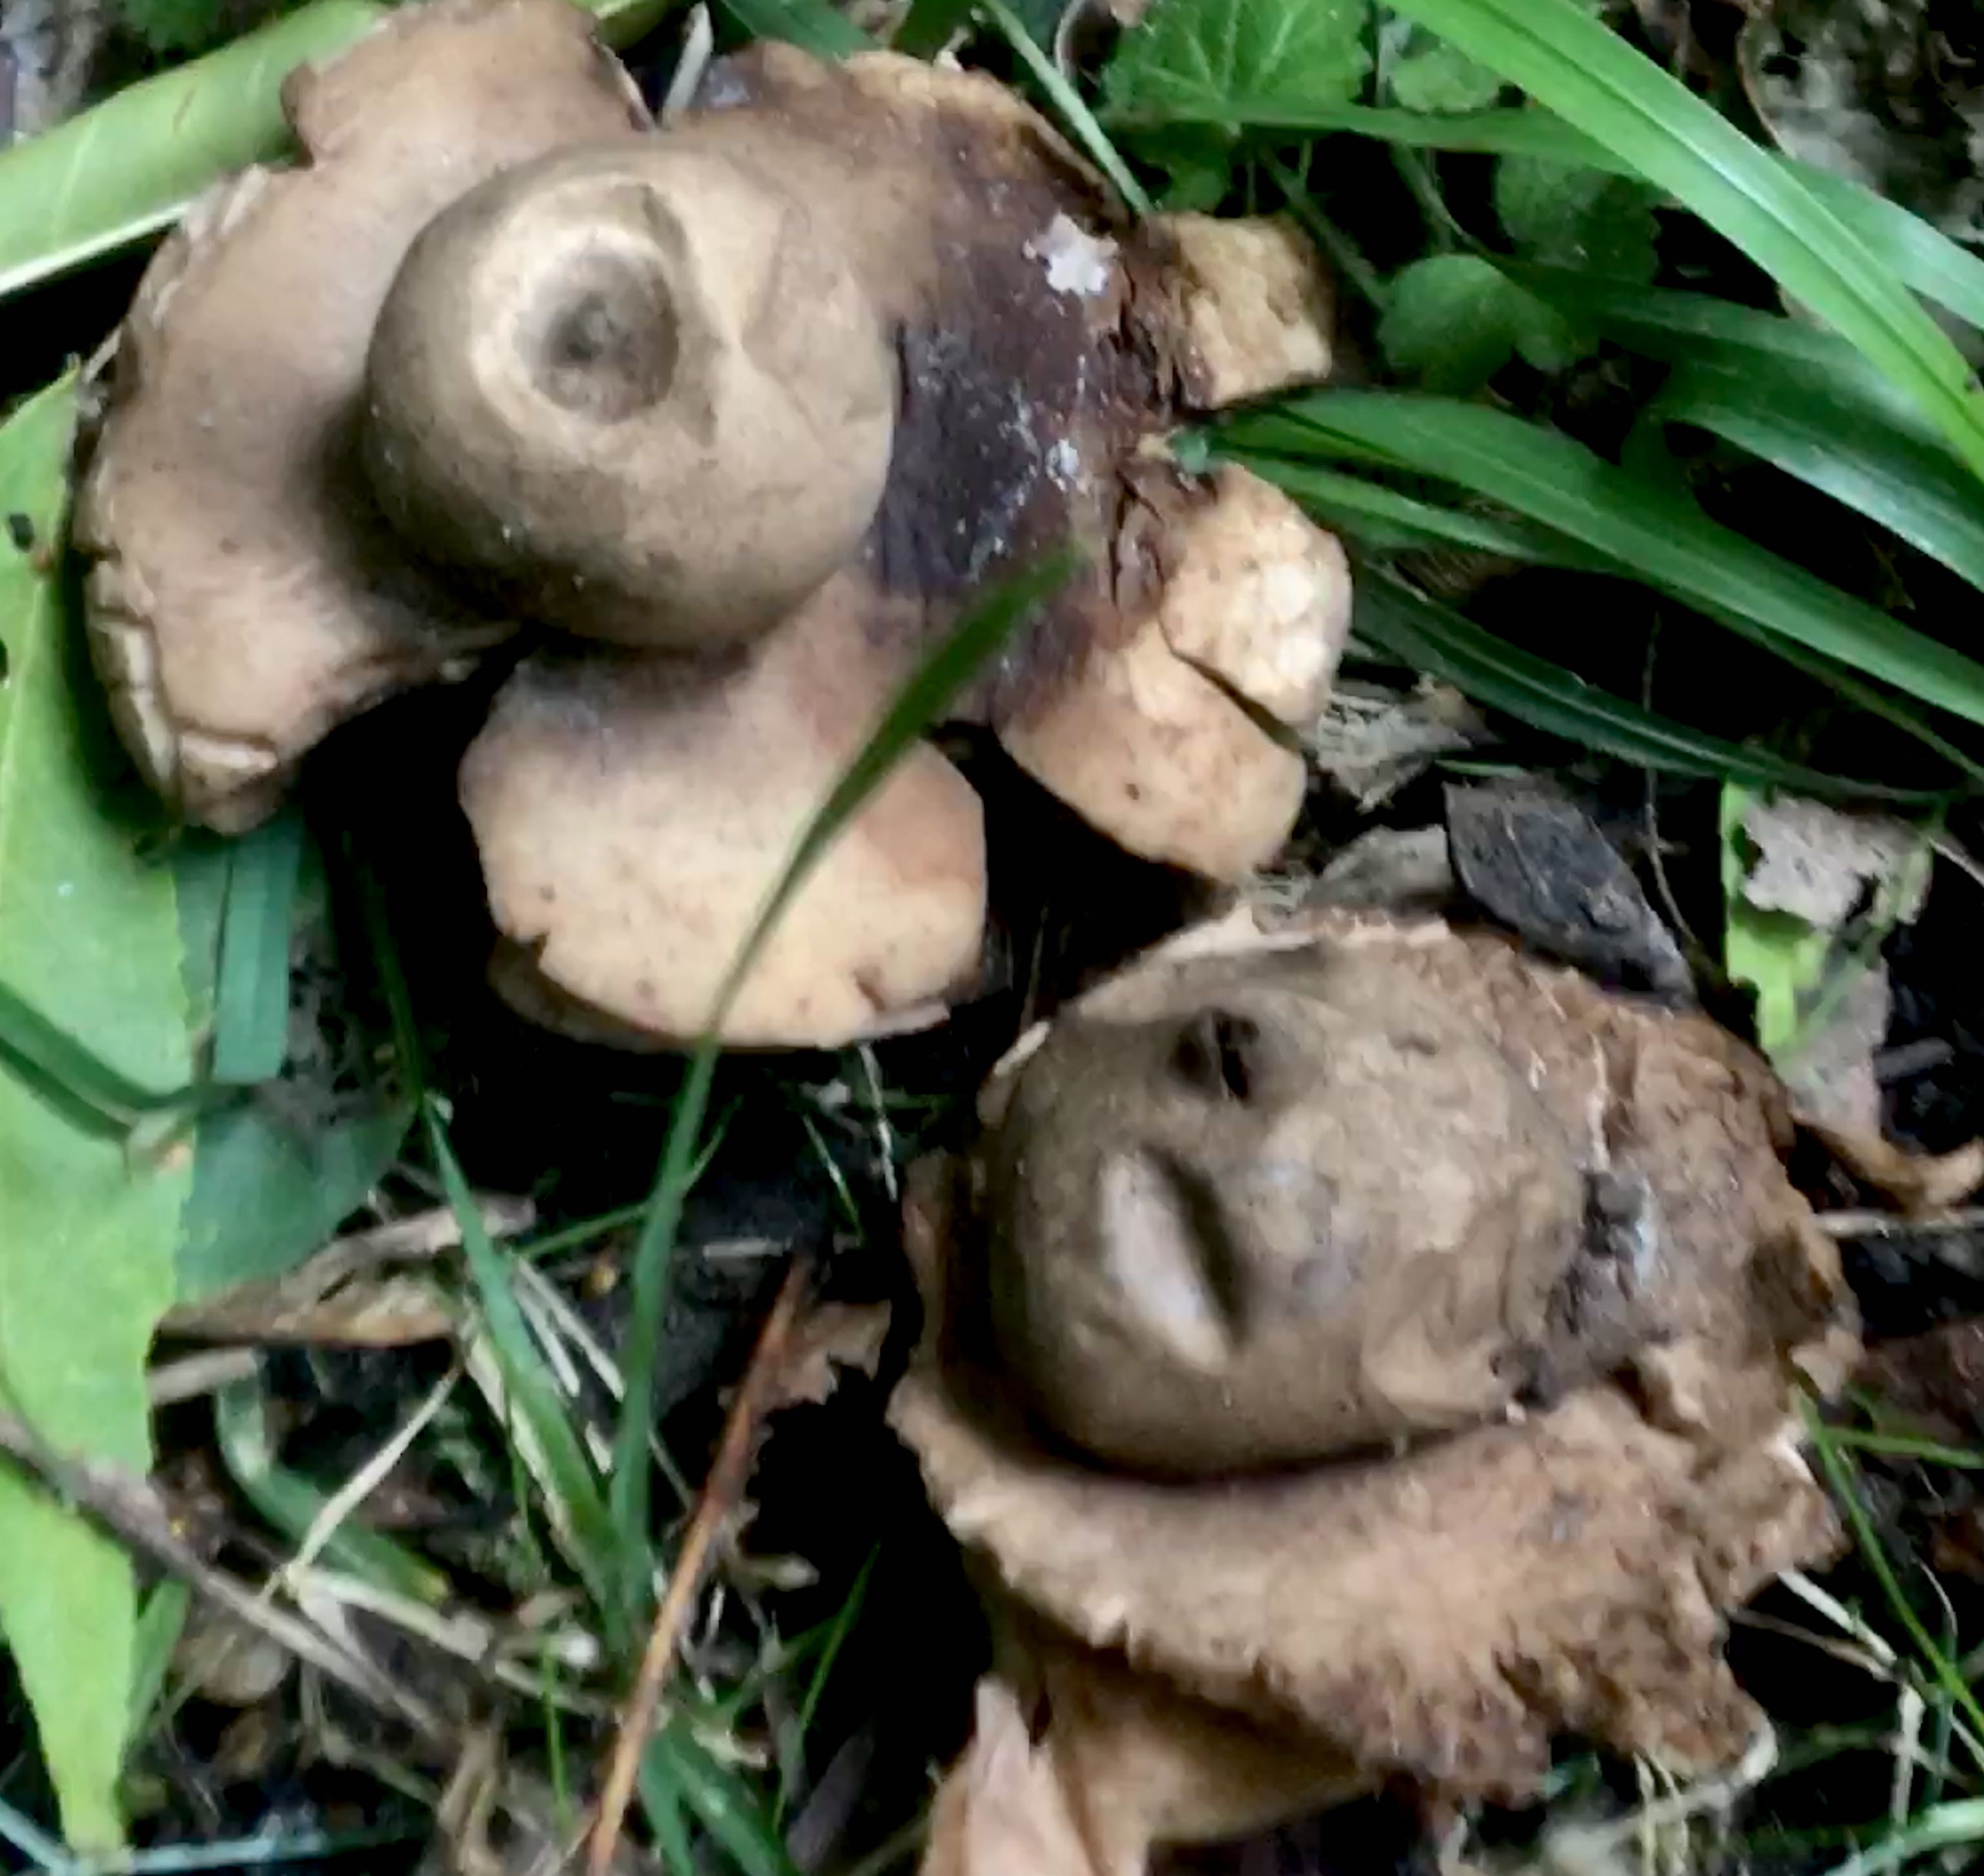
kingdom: Fungi
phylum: Basidiomycota
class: Agaricomycetes
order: Geastrales
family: Geastraceae
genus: Geastrum
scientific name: Geastrum michelianum
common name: kødet stjernebold
